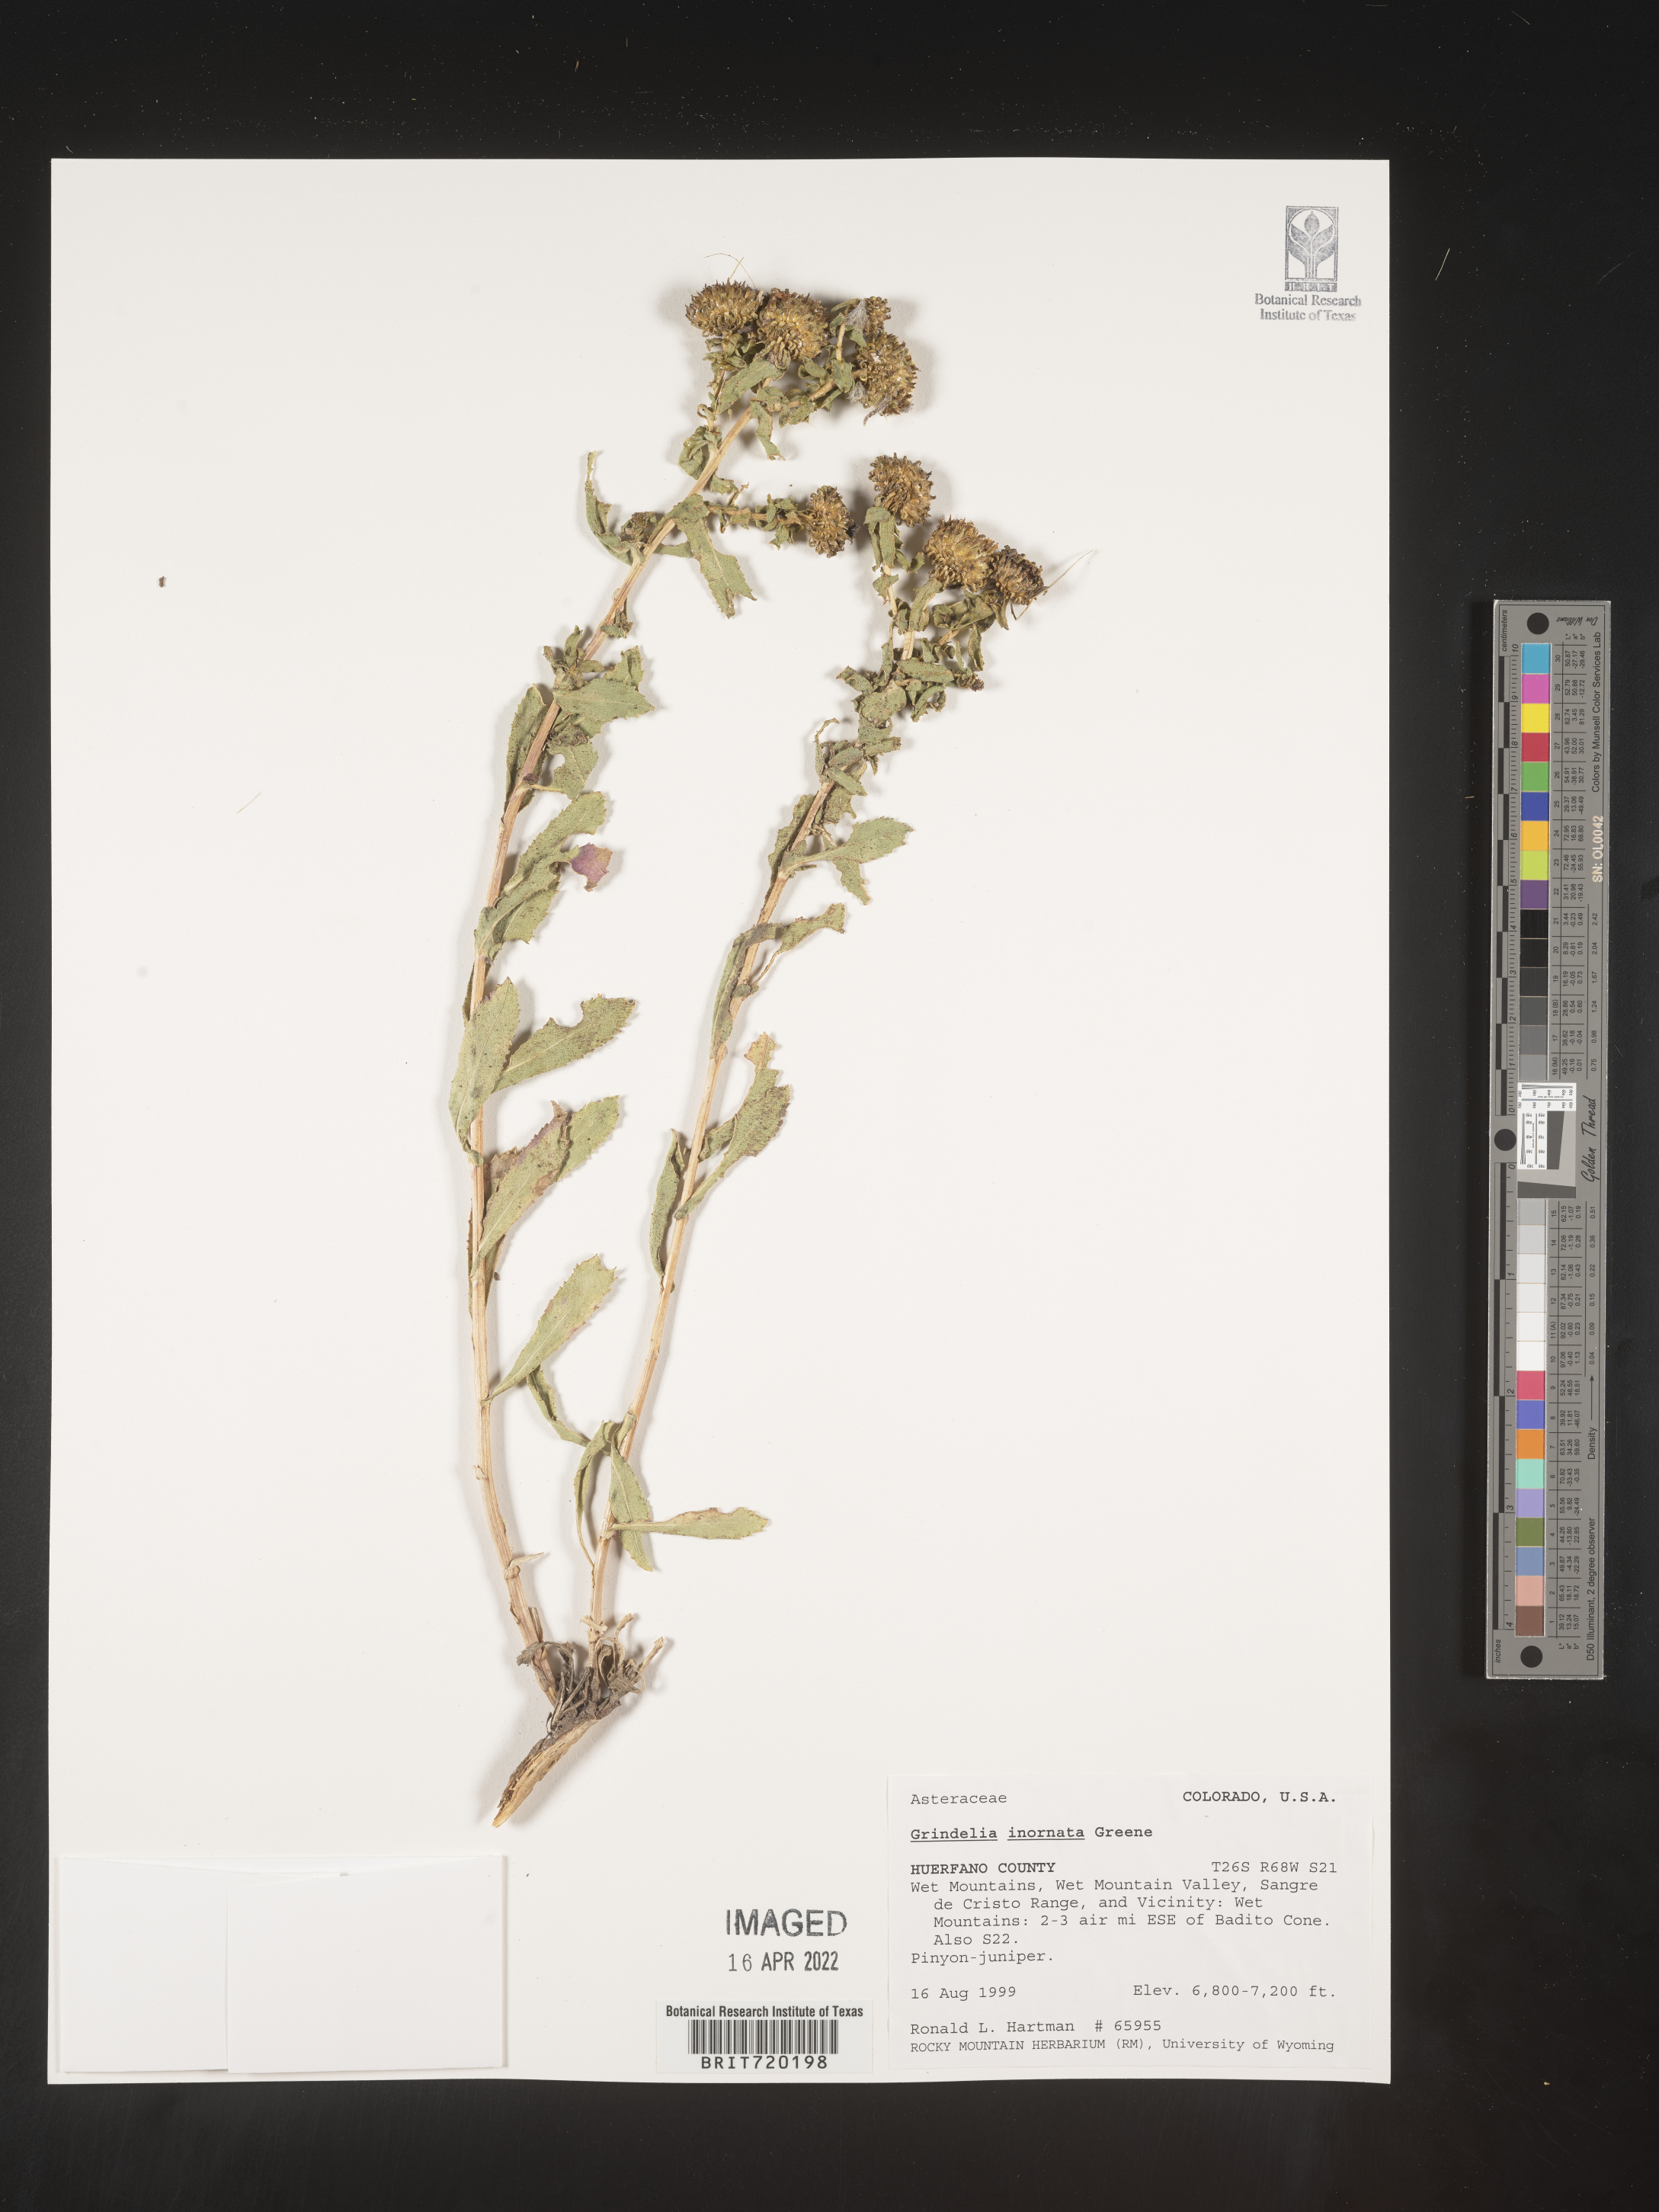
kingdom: Plantae
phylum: Tracheophyta
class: Magnoliopsida
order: Asterales
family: Asteraceae
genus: Grindelia
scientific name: Grindelia hirsutula
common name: Hairy gumweed
